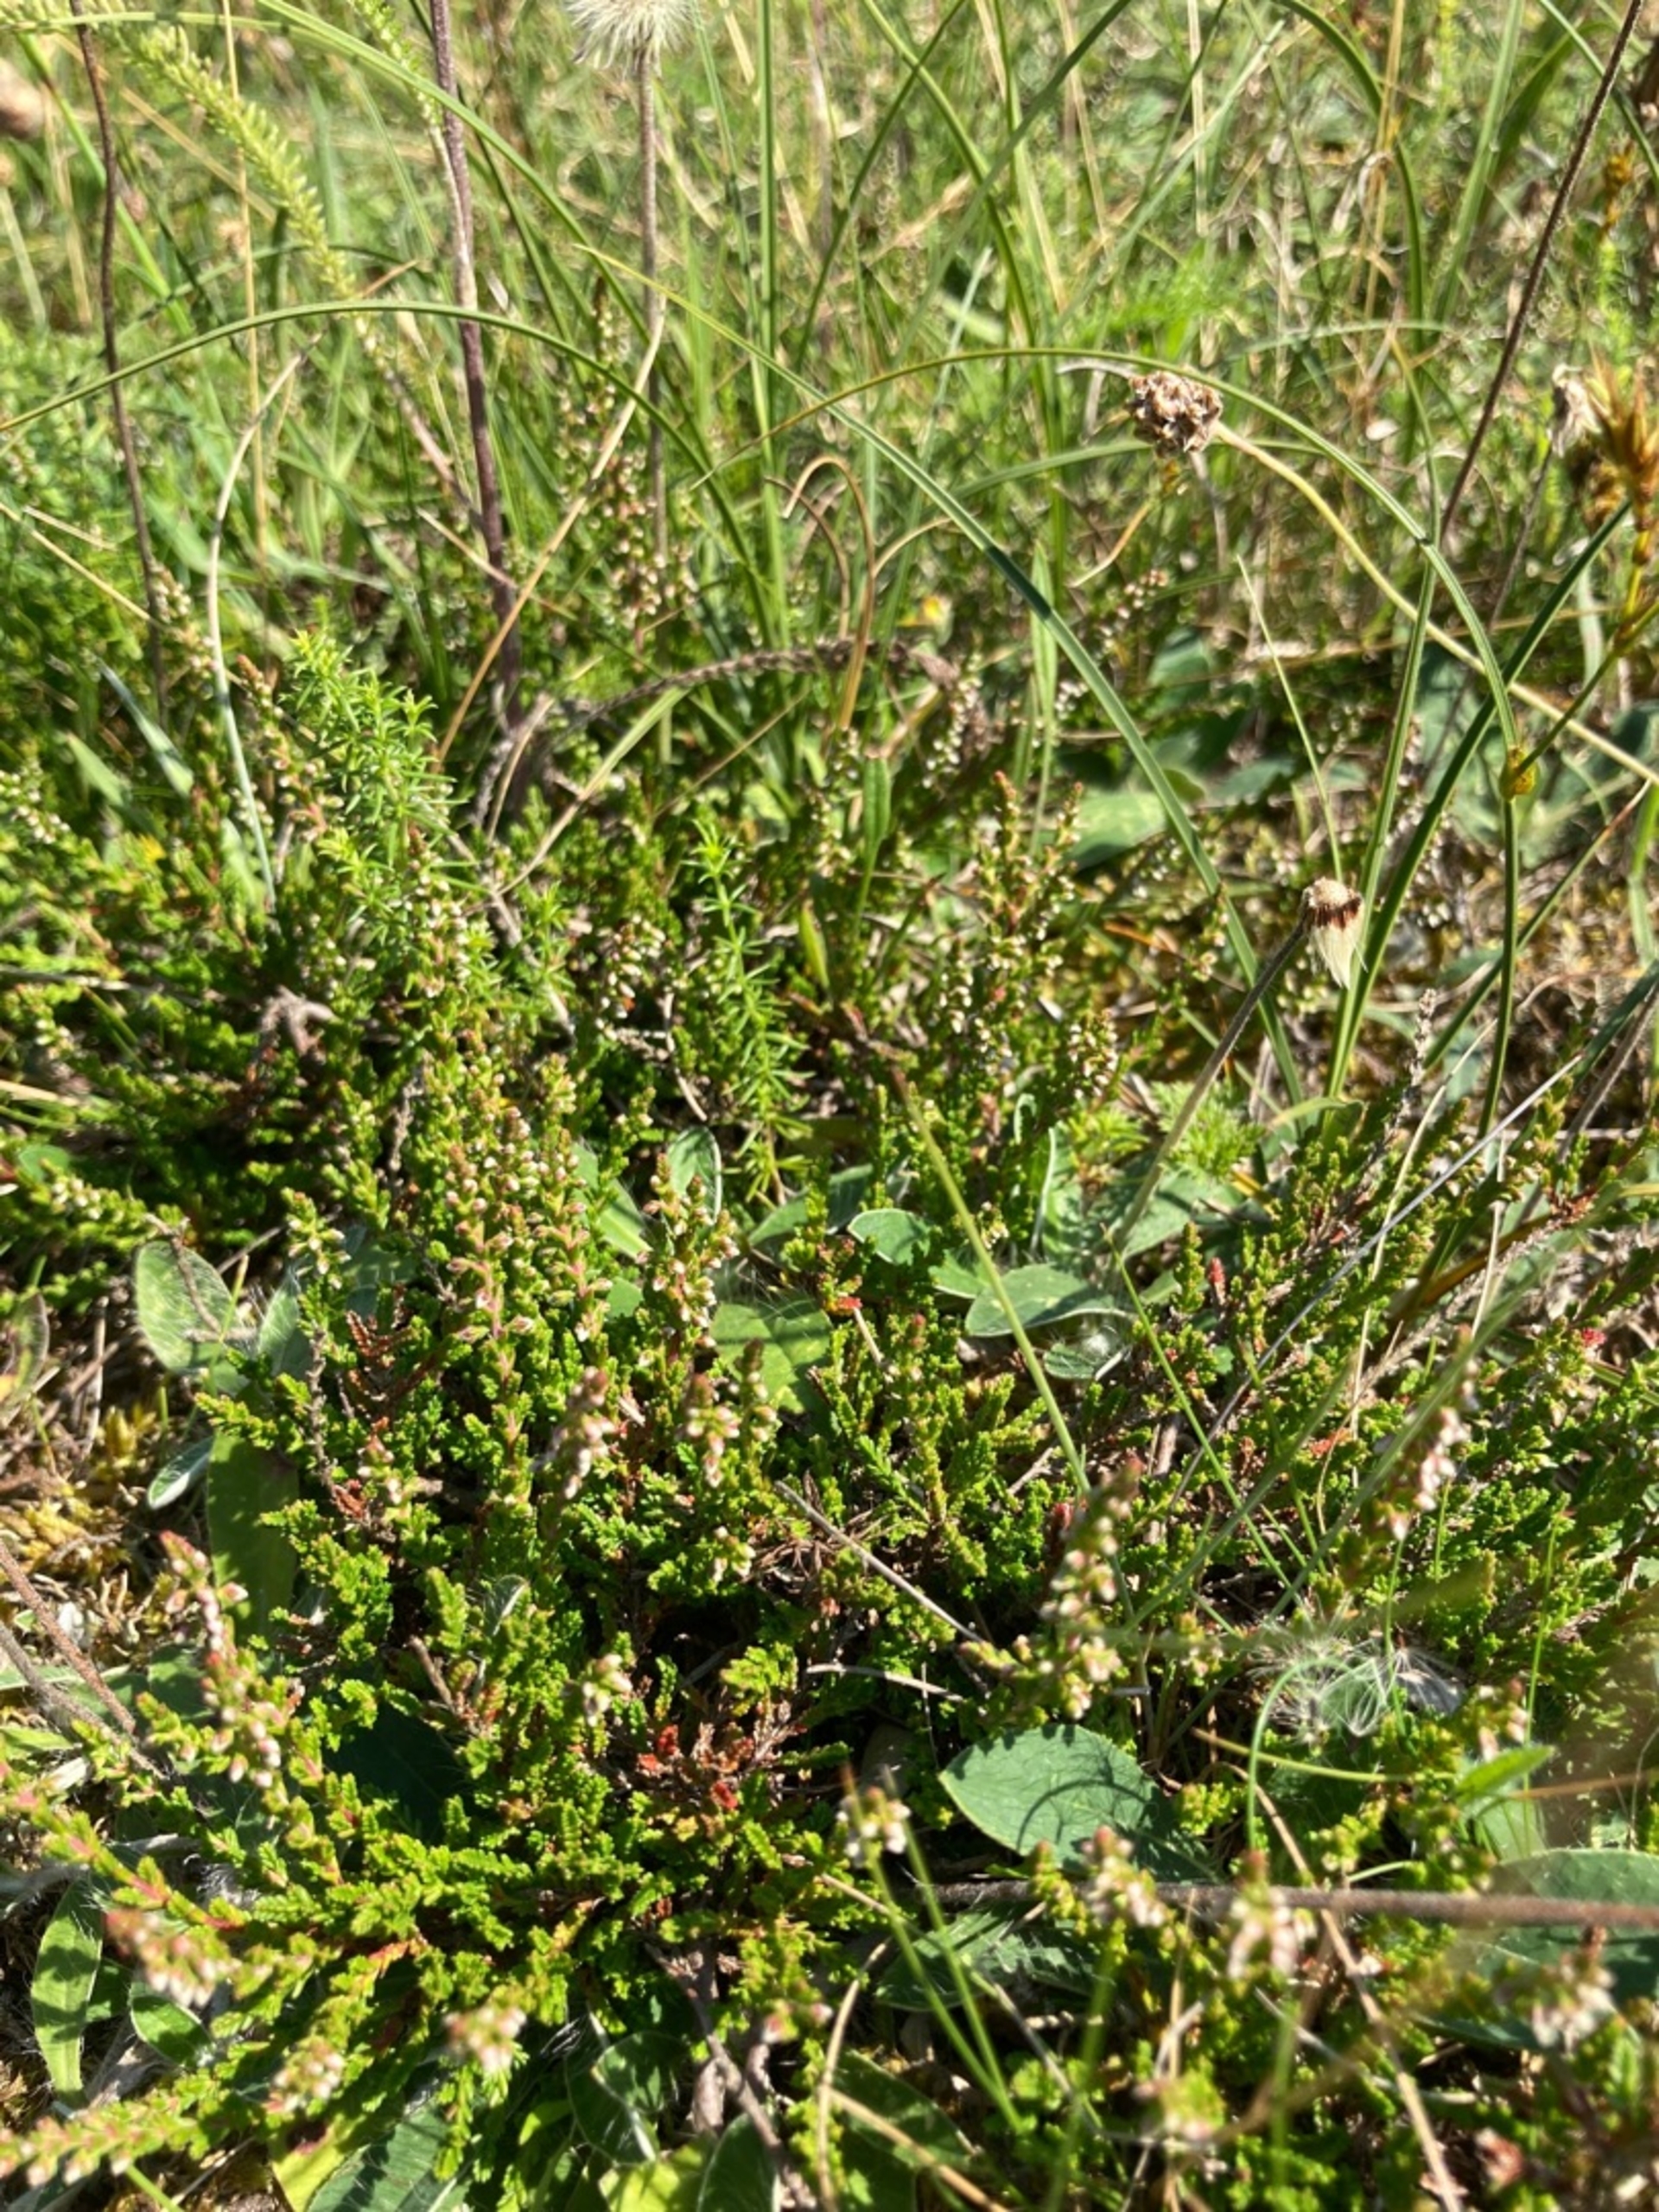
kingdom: Plantae
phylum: Tracheophyta
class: Magnoliopsida
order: Ericales
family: Ericaceae
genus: Calluna
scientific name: Calluna vulgaris
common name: Hedelyng
